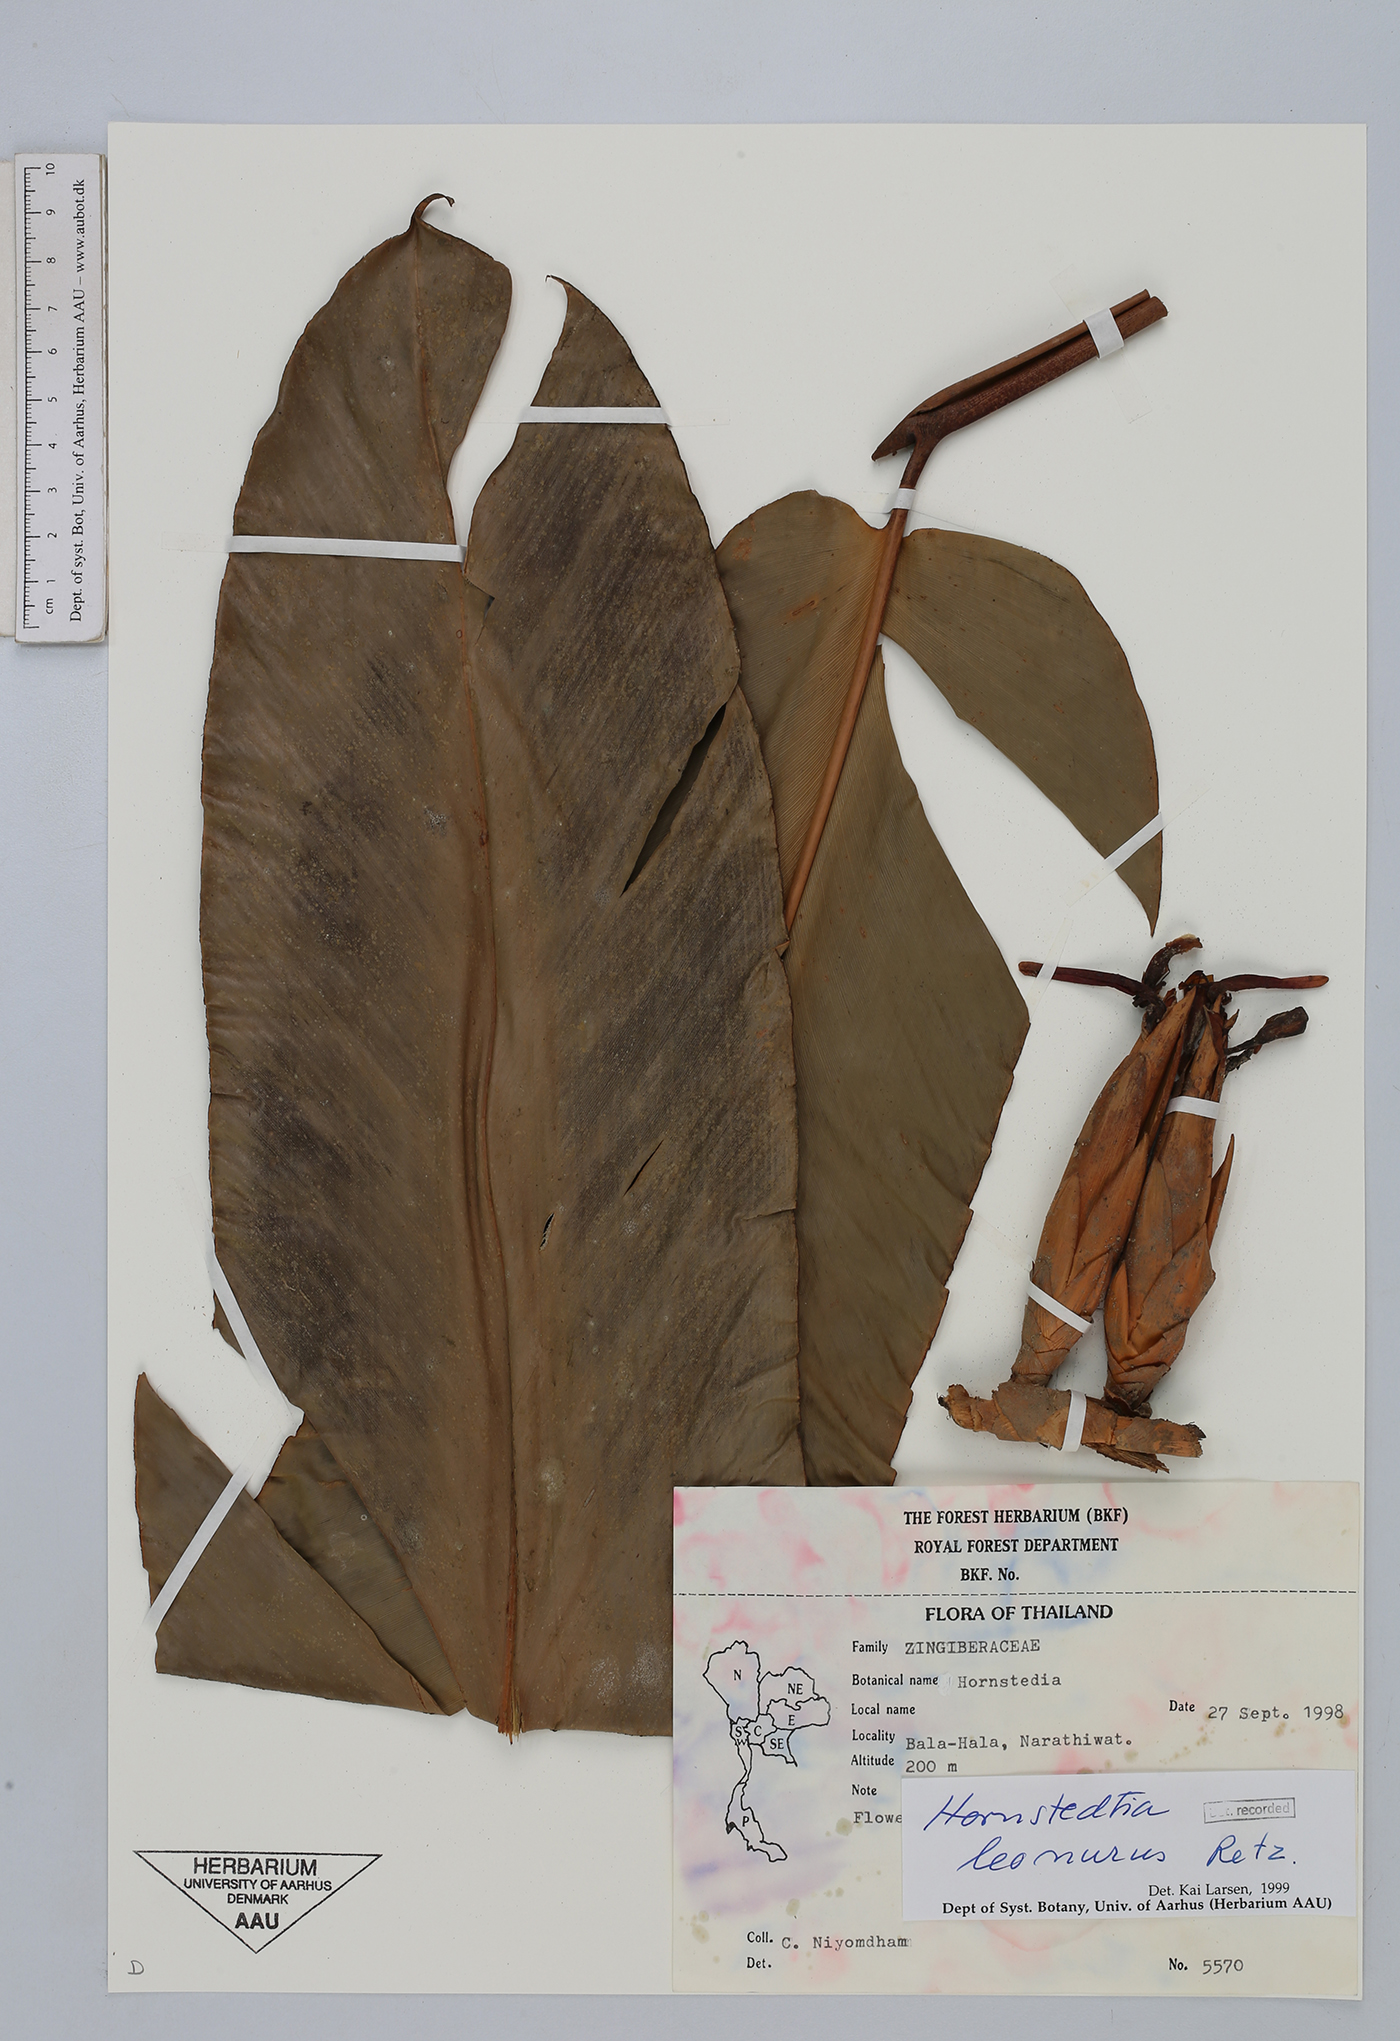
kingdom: Plantae
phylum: Tracheophyta
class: Liliopsida
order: Zingiberales
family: Zingiberaceae
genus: Hornstedtia
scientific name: Hornstedtia leonurus
